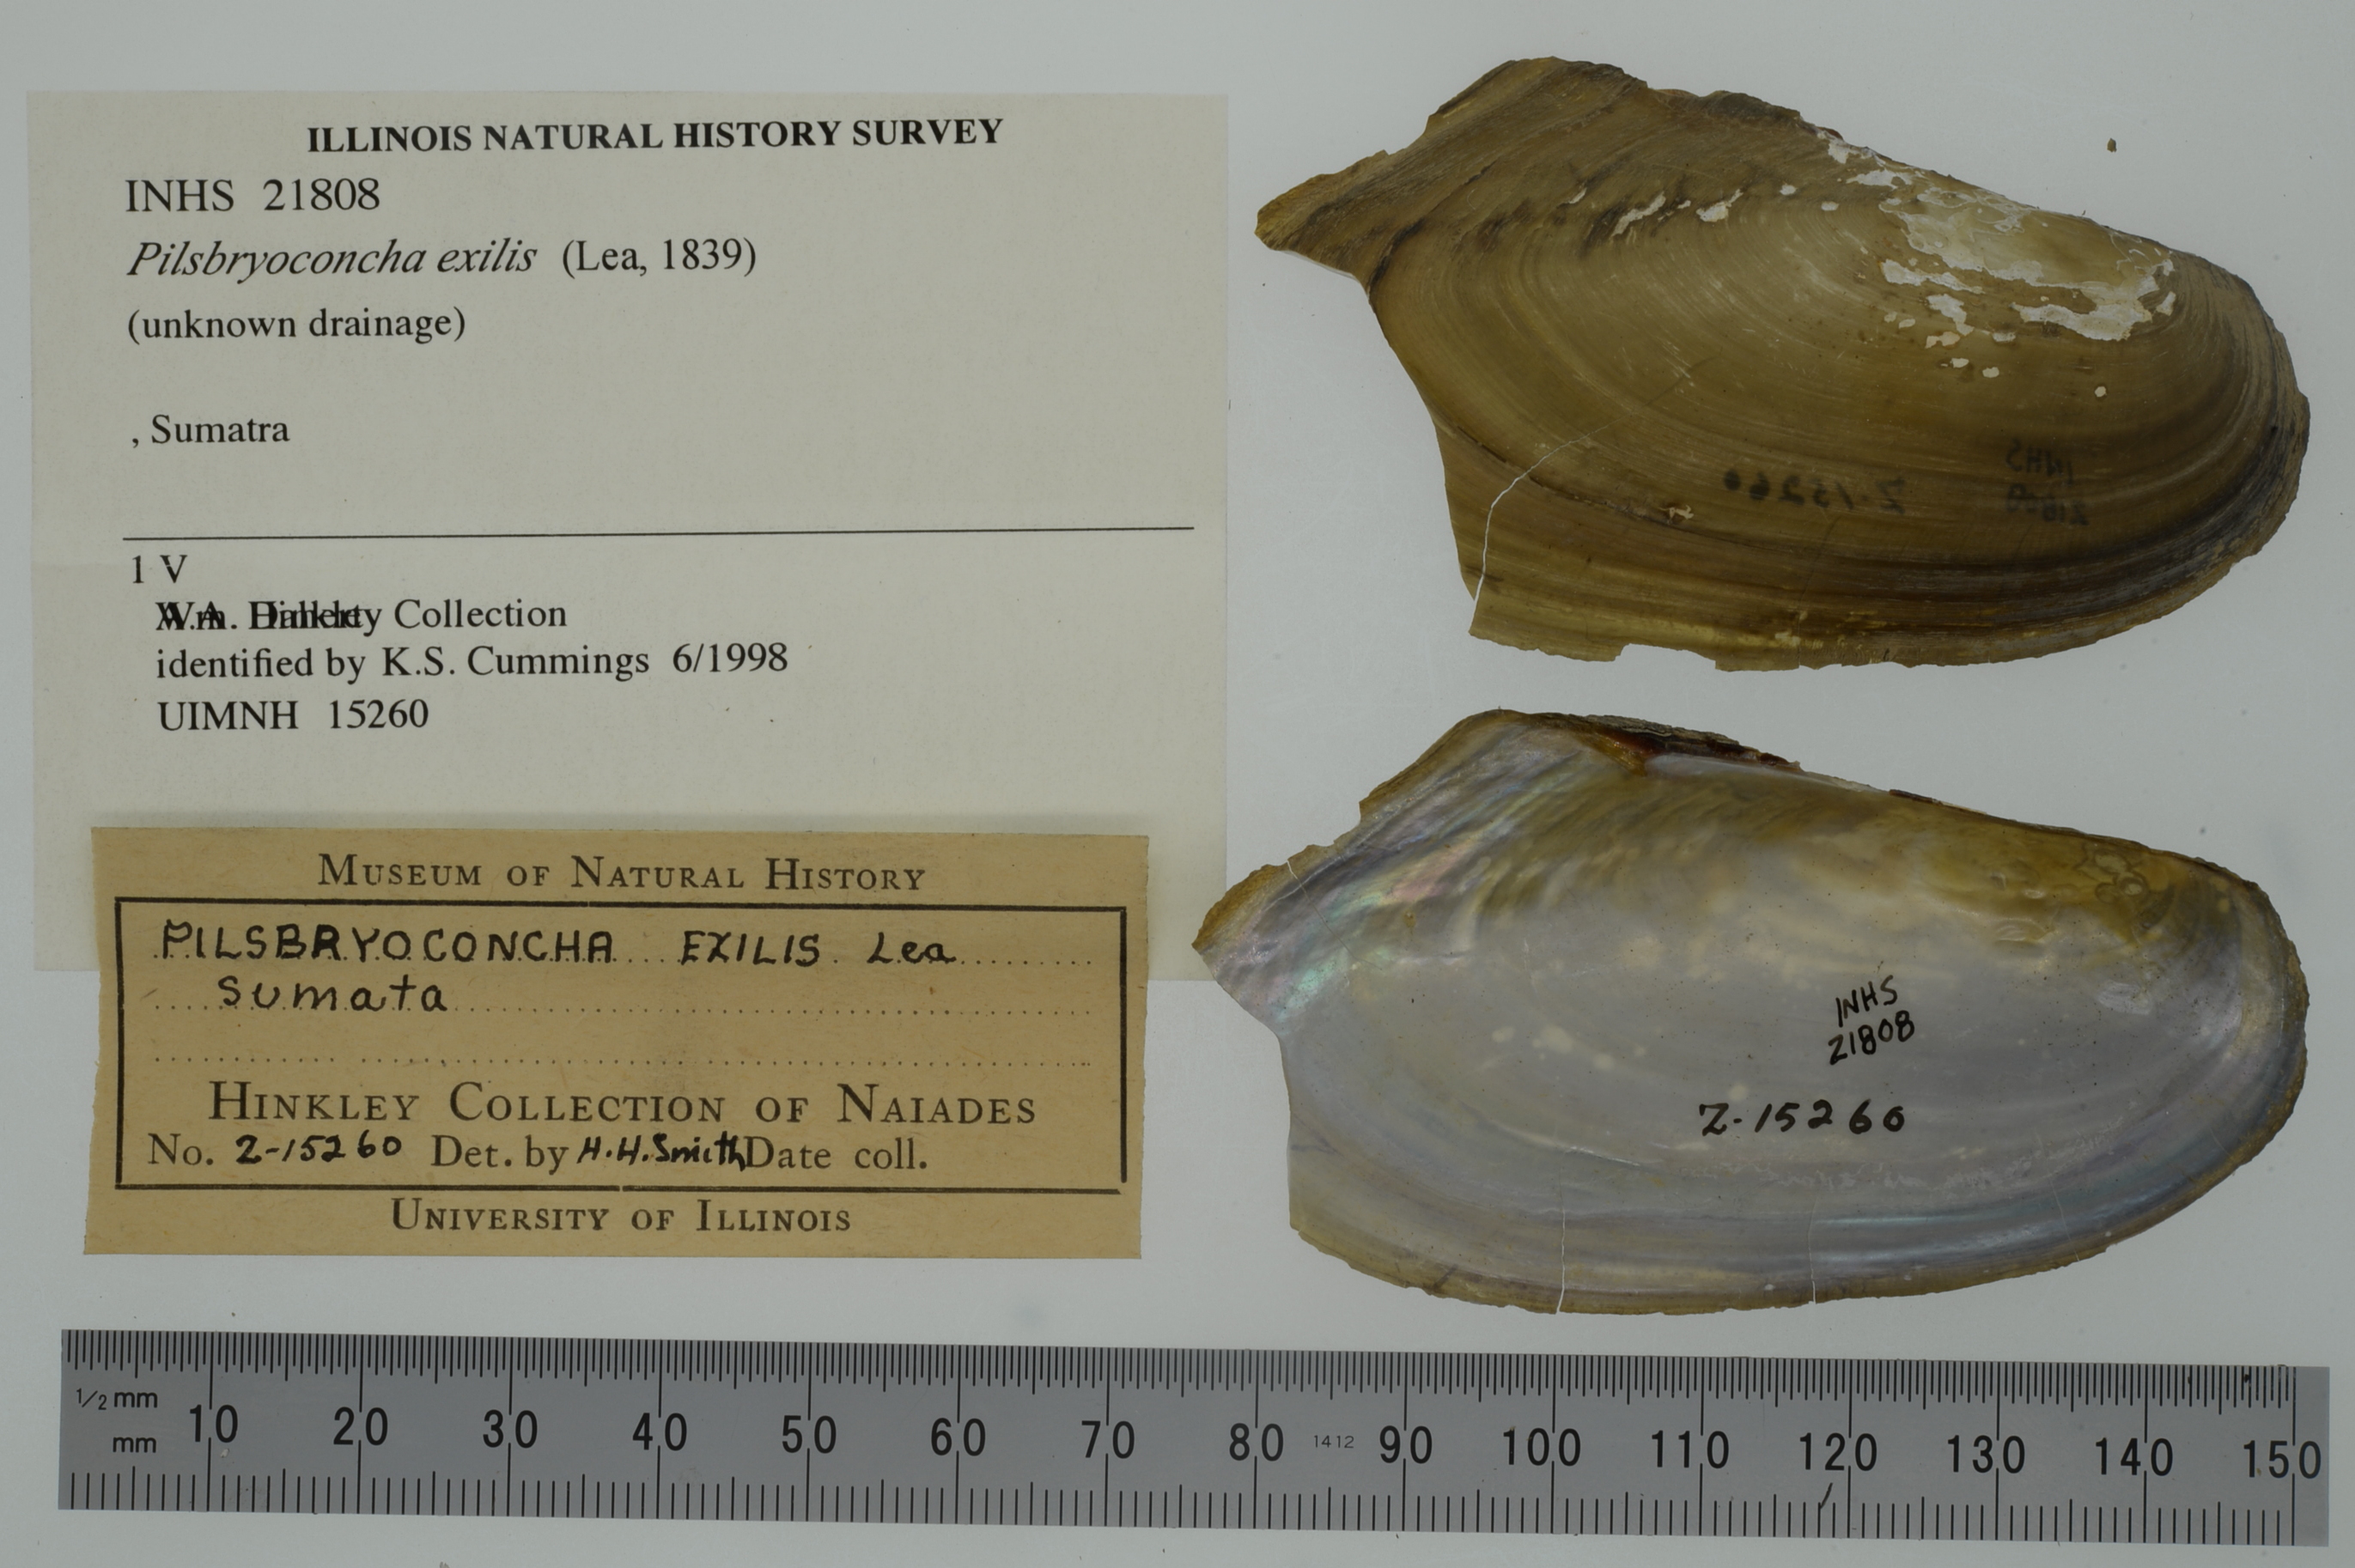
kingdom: Animalia
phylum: Mollusca
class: Bivalvia
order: Unionida
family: Unionidae
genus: Pilsbryoconcha
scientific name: Pilsbryoconcha exilis
